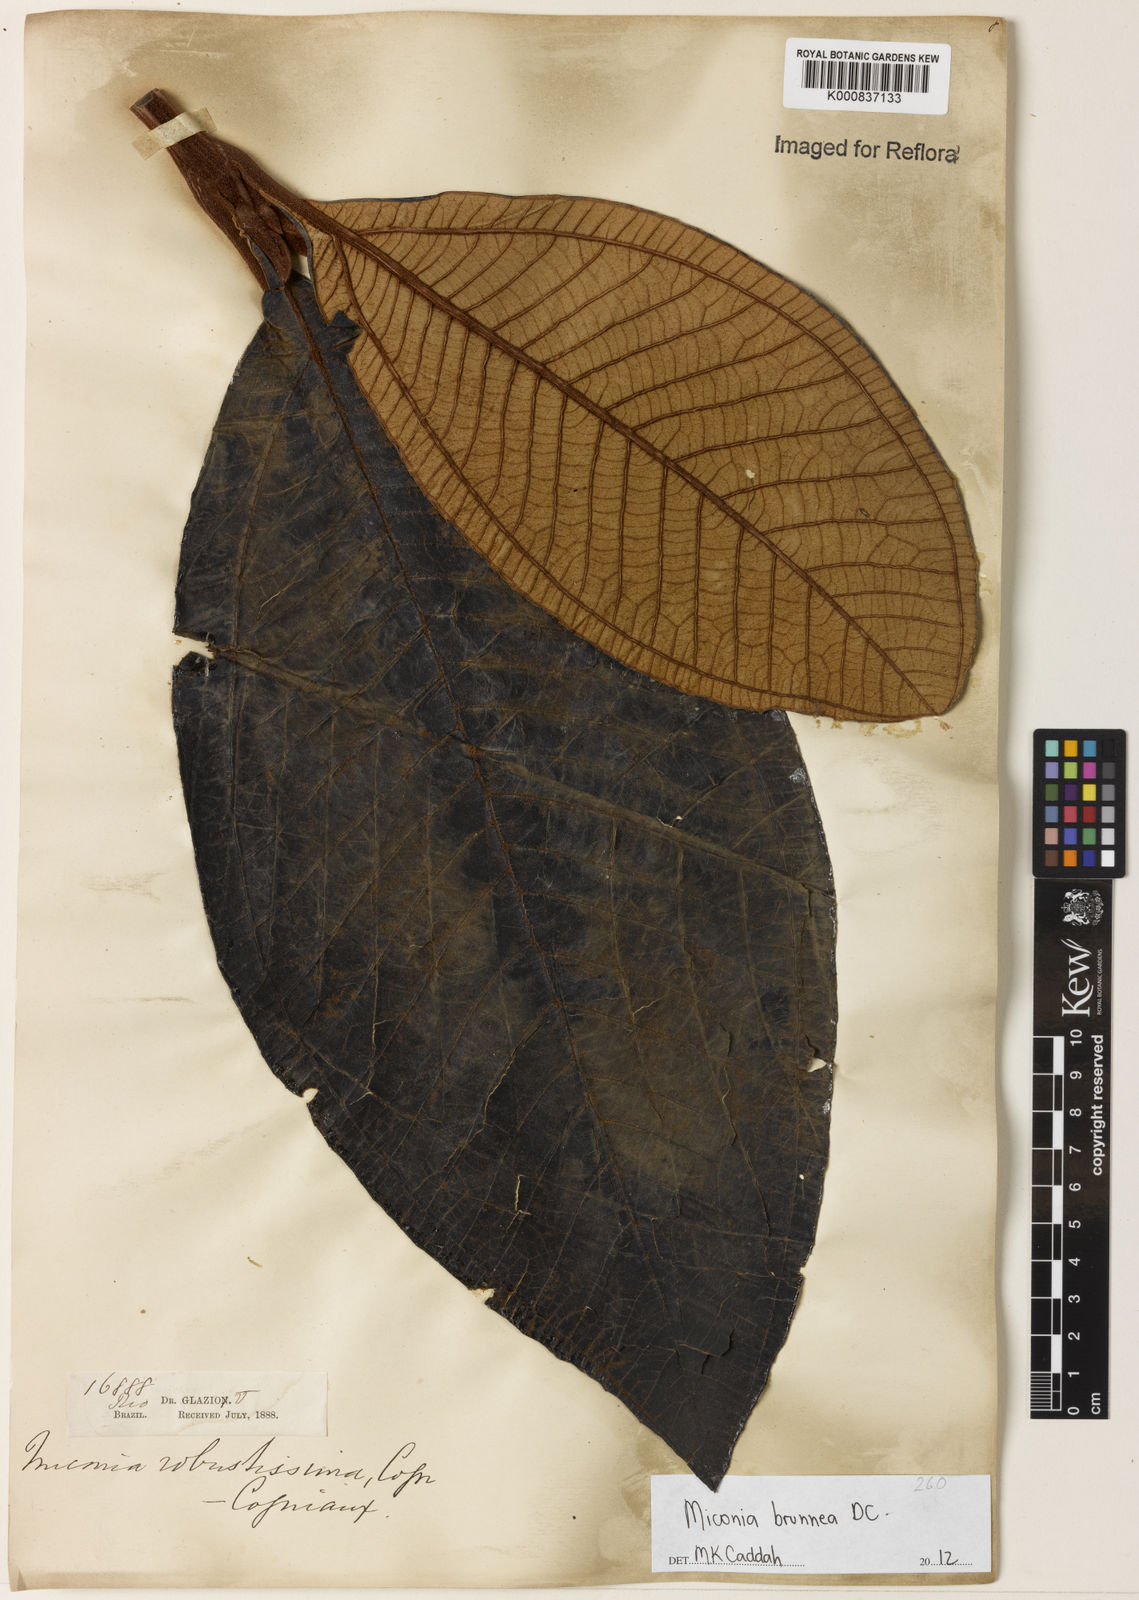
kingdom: Plantae
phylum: Tracheophyta
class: Magnoliopsida
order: Myrtales
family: Melastomataceae
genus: Miconia
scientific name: Miconia brunnea
